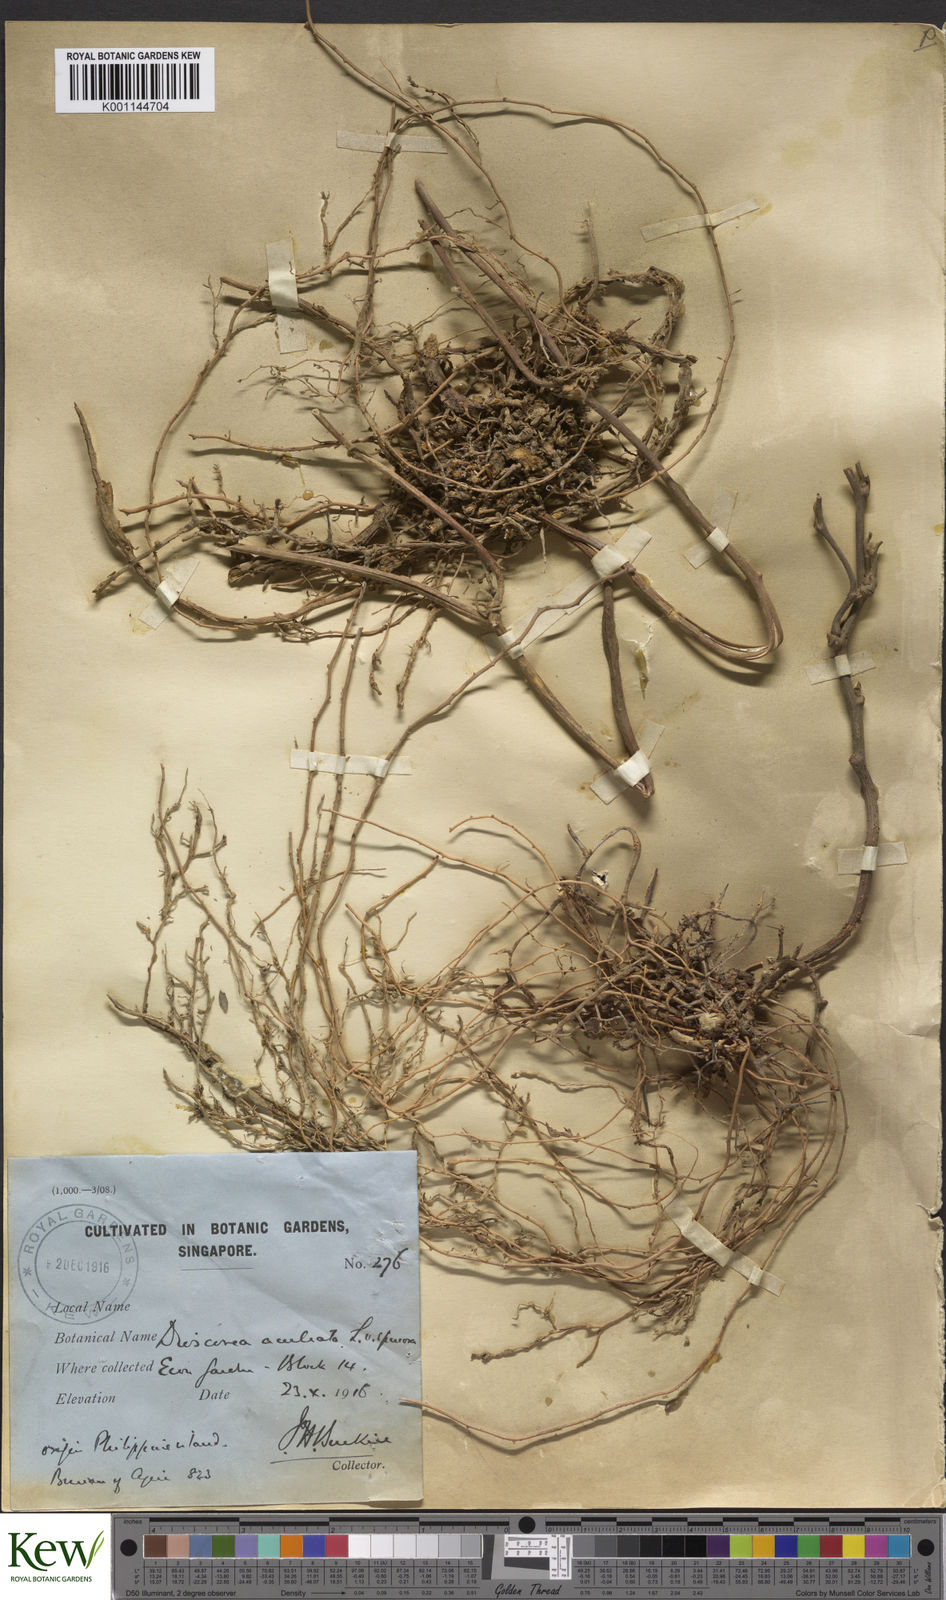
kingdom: Plantae
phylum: Tracheophyta
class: Liliopsida
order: Dioscoreales
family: Dioscoreaceae
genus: Dioscorea
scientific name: Dioscorea esculenta
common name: Chinese yam
